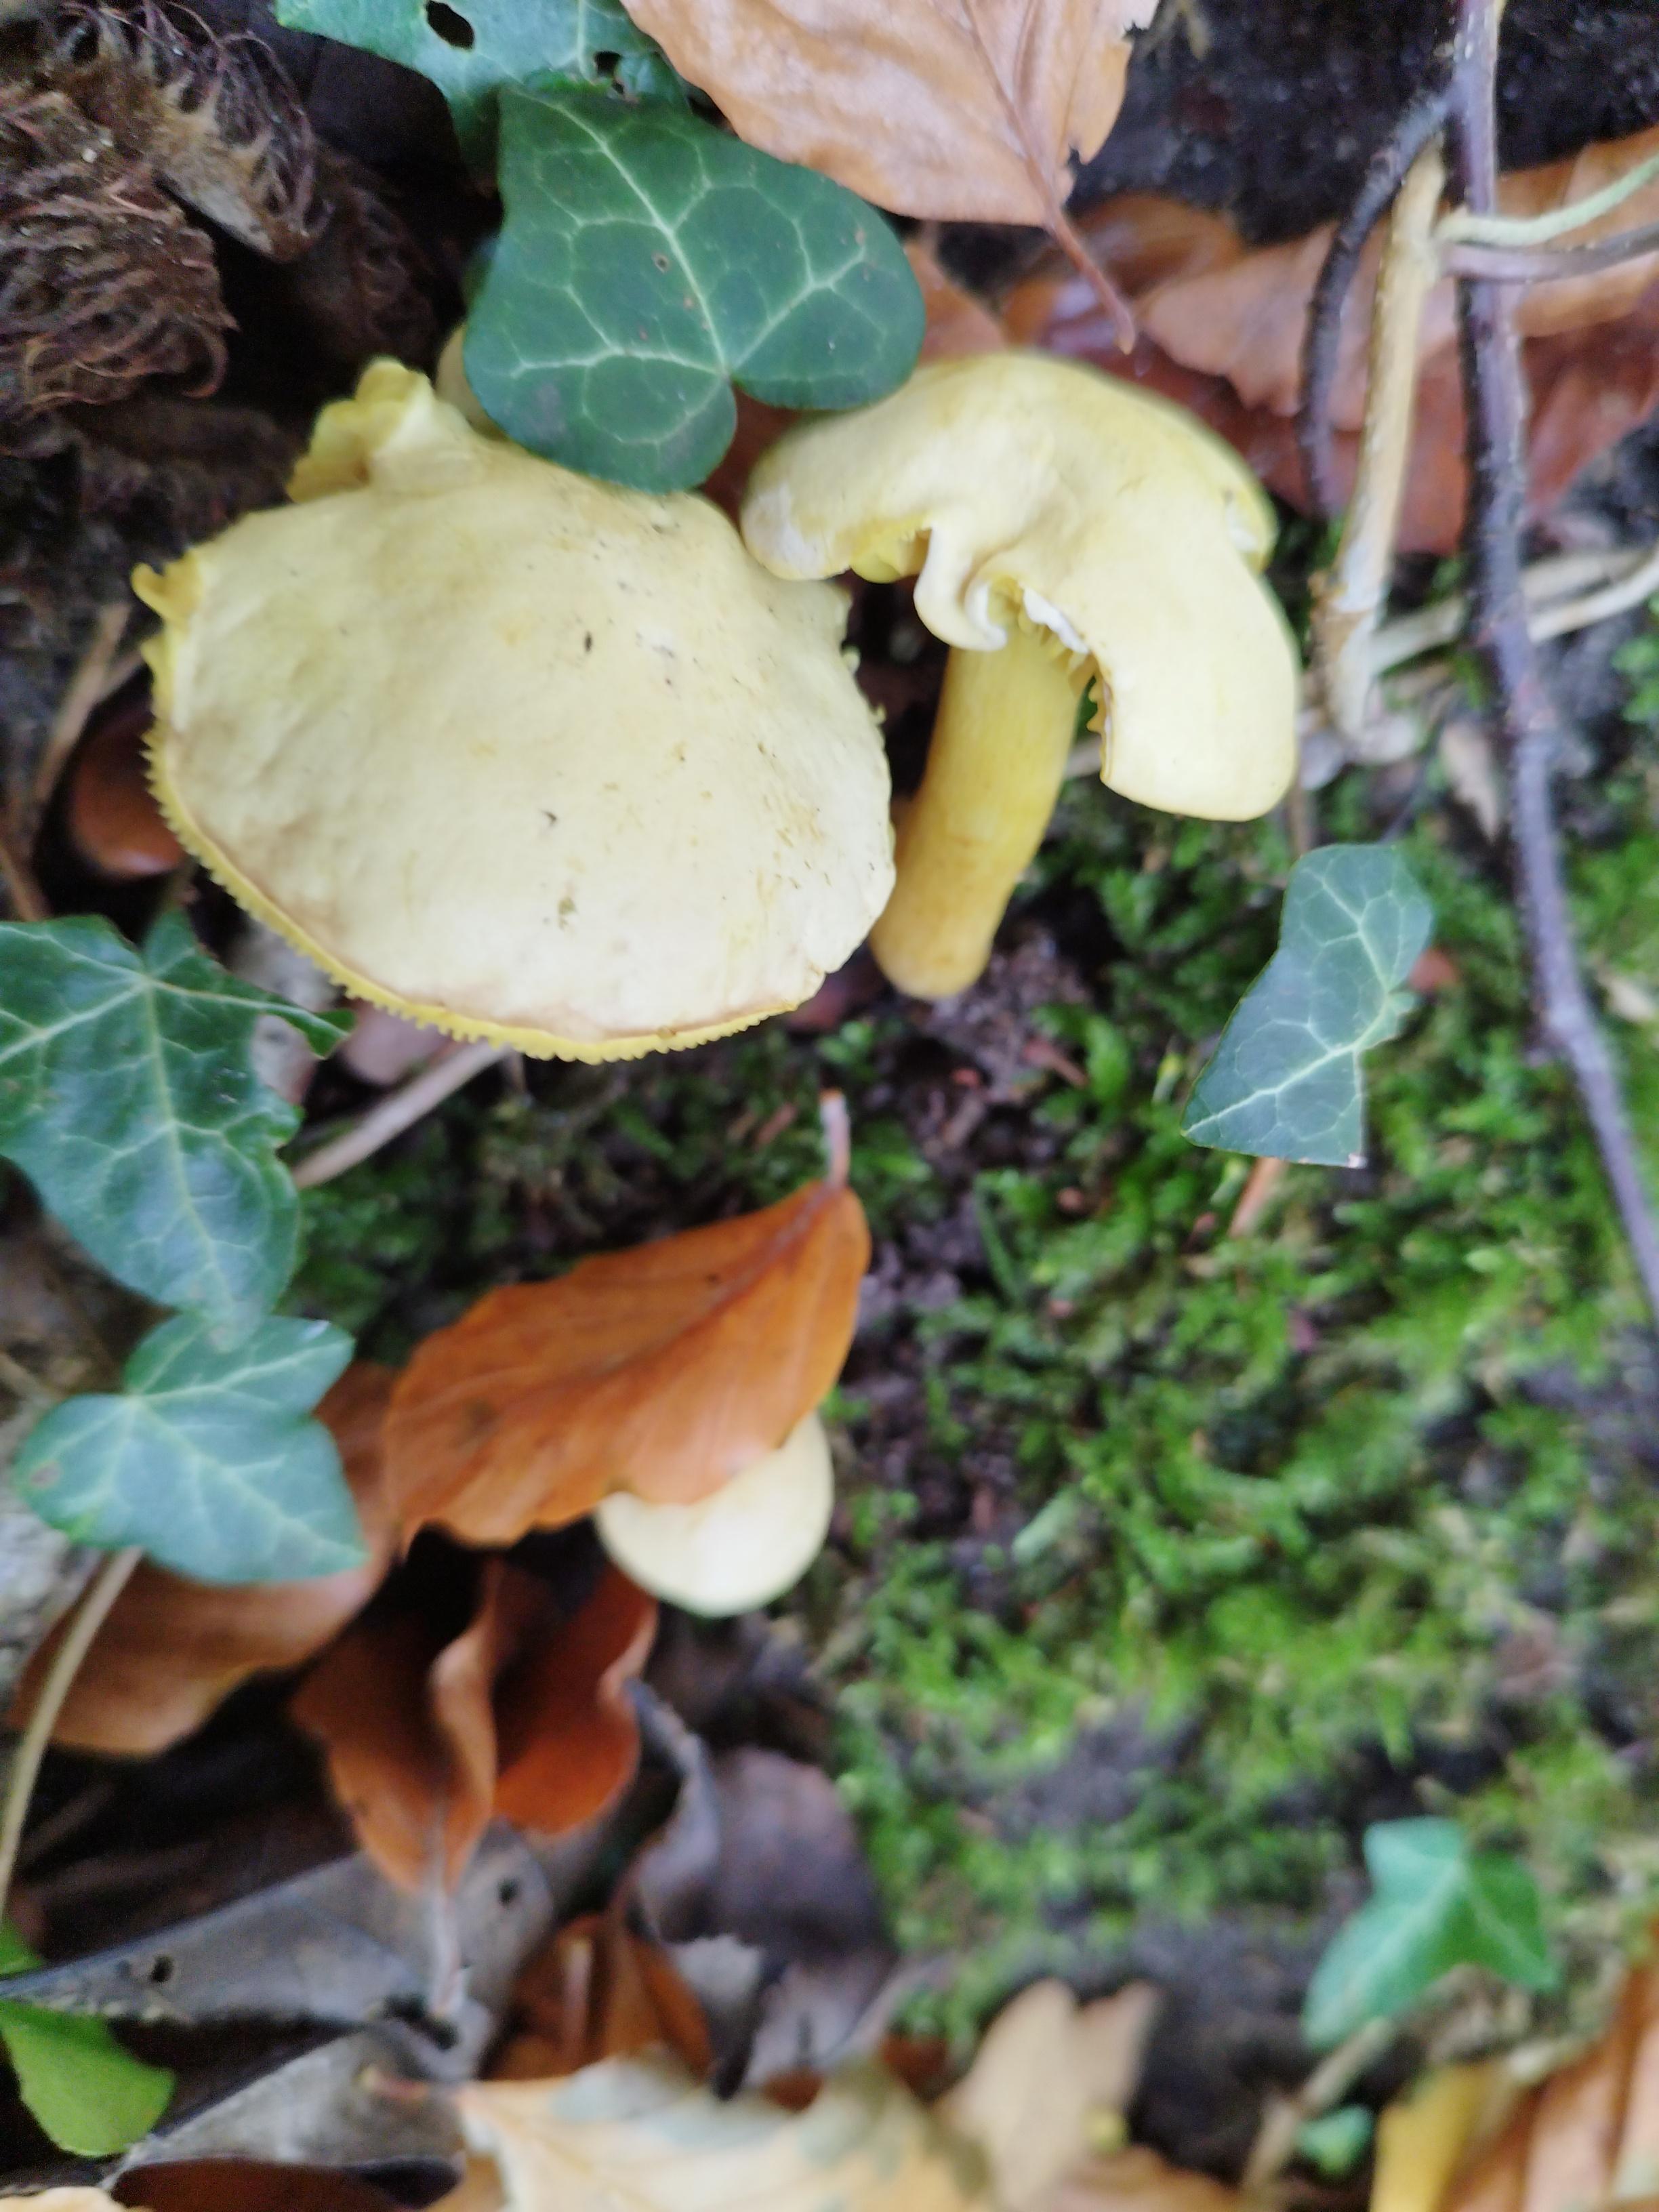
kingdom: Fungi
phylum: Basidiomycota
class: Agaricomycetes
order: Agaricales
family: Tricholomataceae
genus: Tricholoma
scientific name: Tricholoma sulphureum
